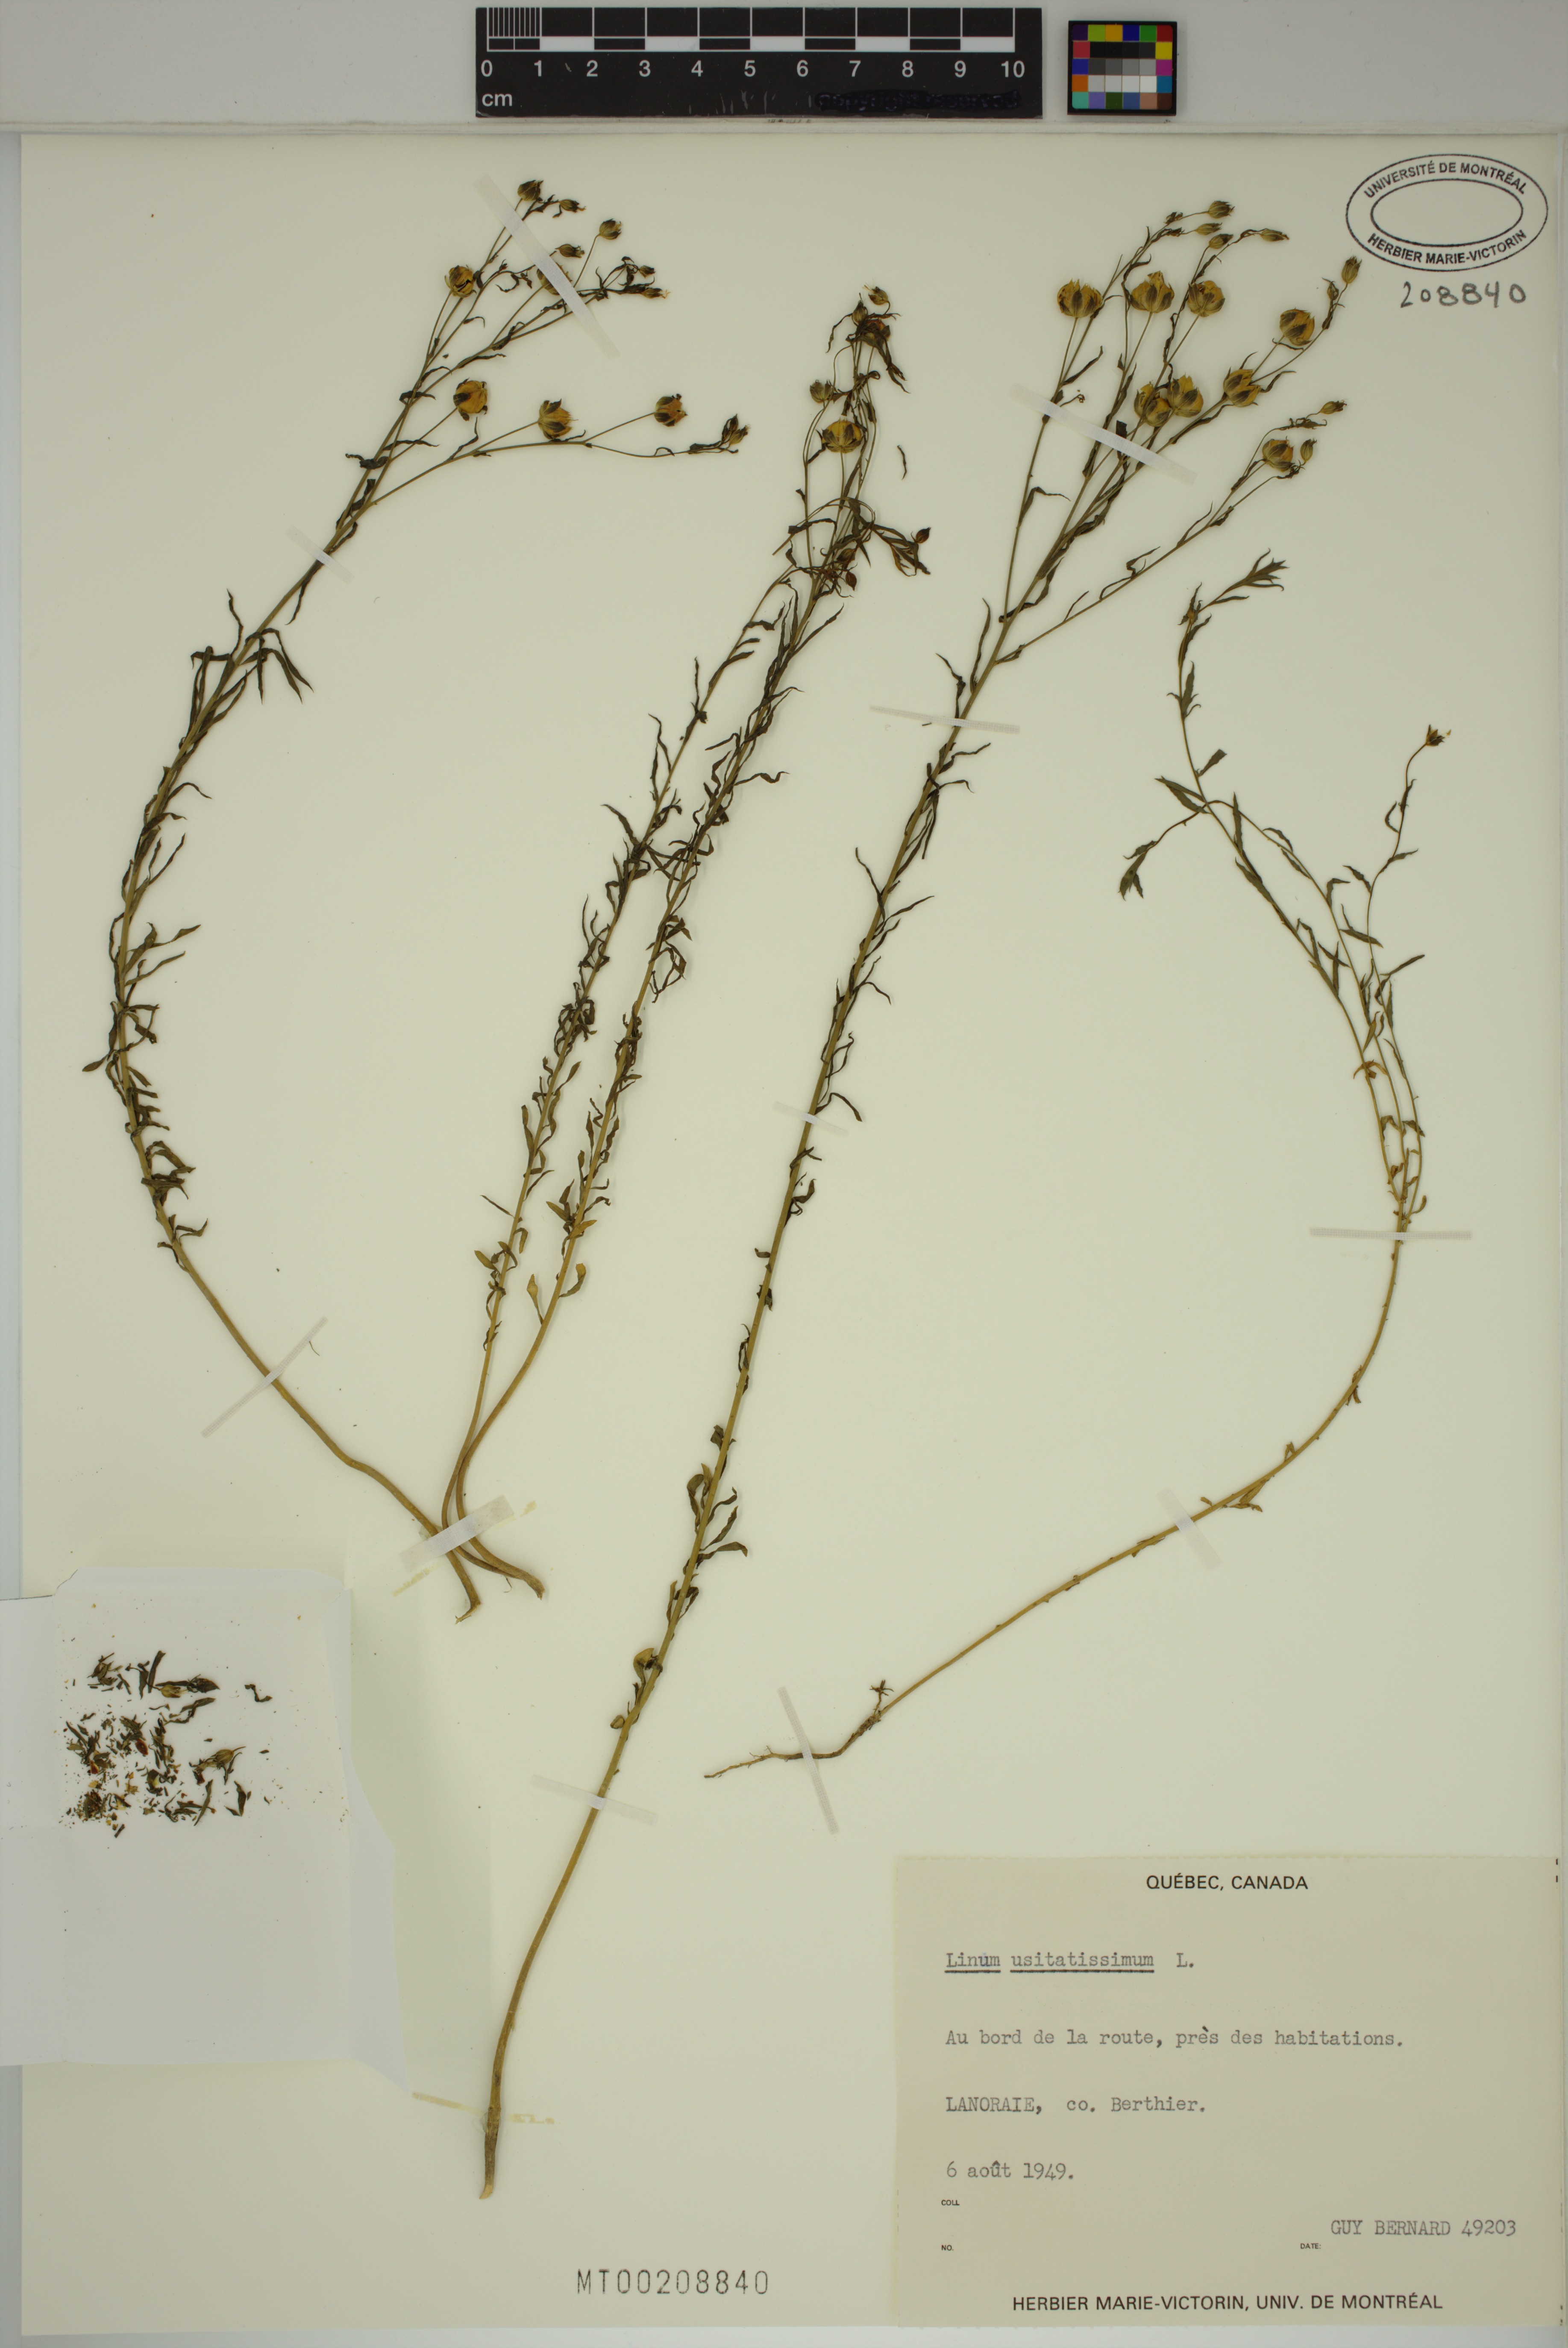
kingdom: Plantae
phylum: Tracheophyta
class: Magnoliopsida
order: Malpighiales
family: Linaceae
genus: Linum
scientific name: Linum usitatissimum
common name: Flax
